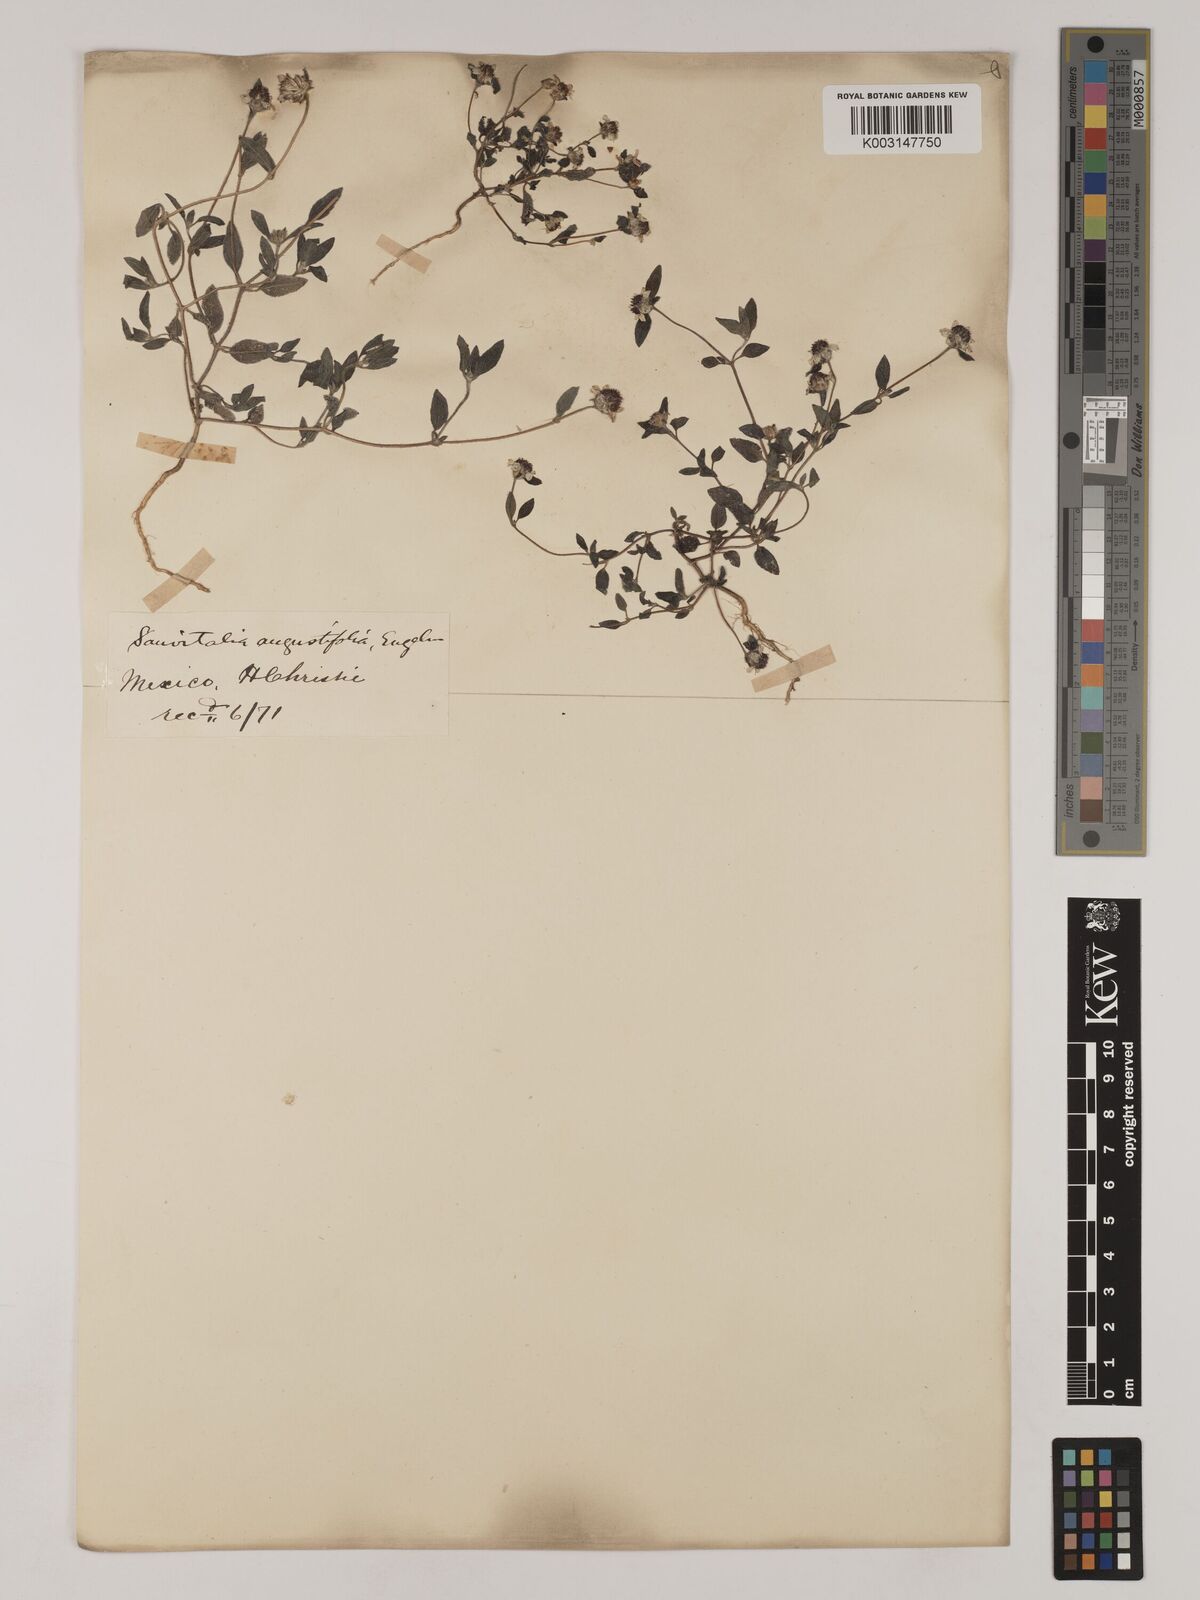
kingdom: Plantae
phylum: Tracheophyta
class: Magnoliopsida
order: Asterales
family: Asteraceae
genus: Sanvitalia
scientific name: Sanvitalia angustifolia
